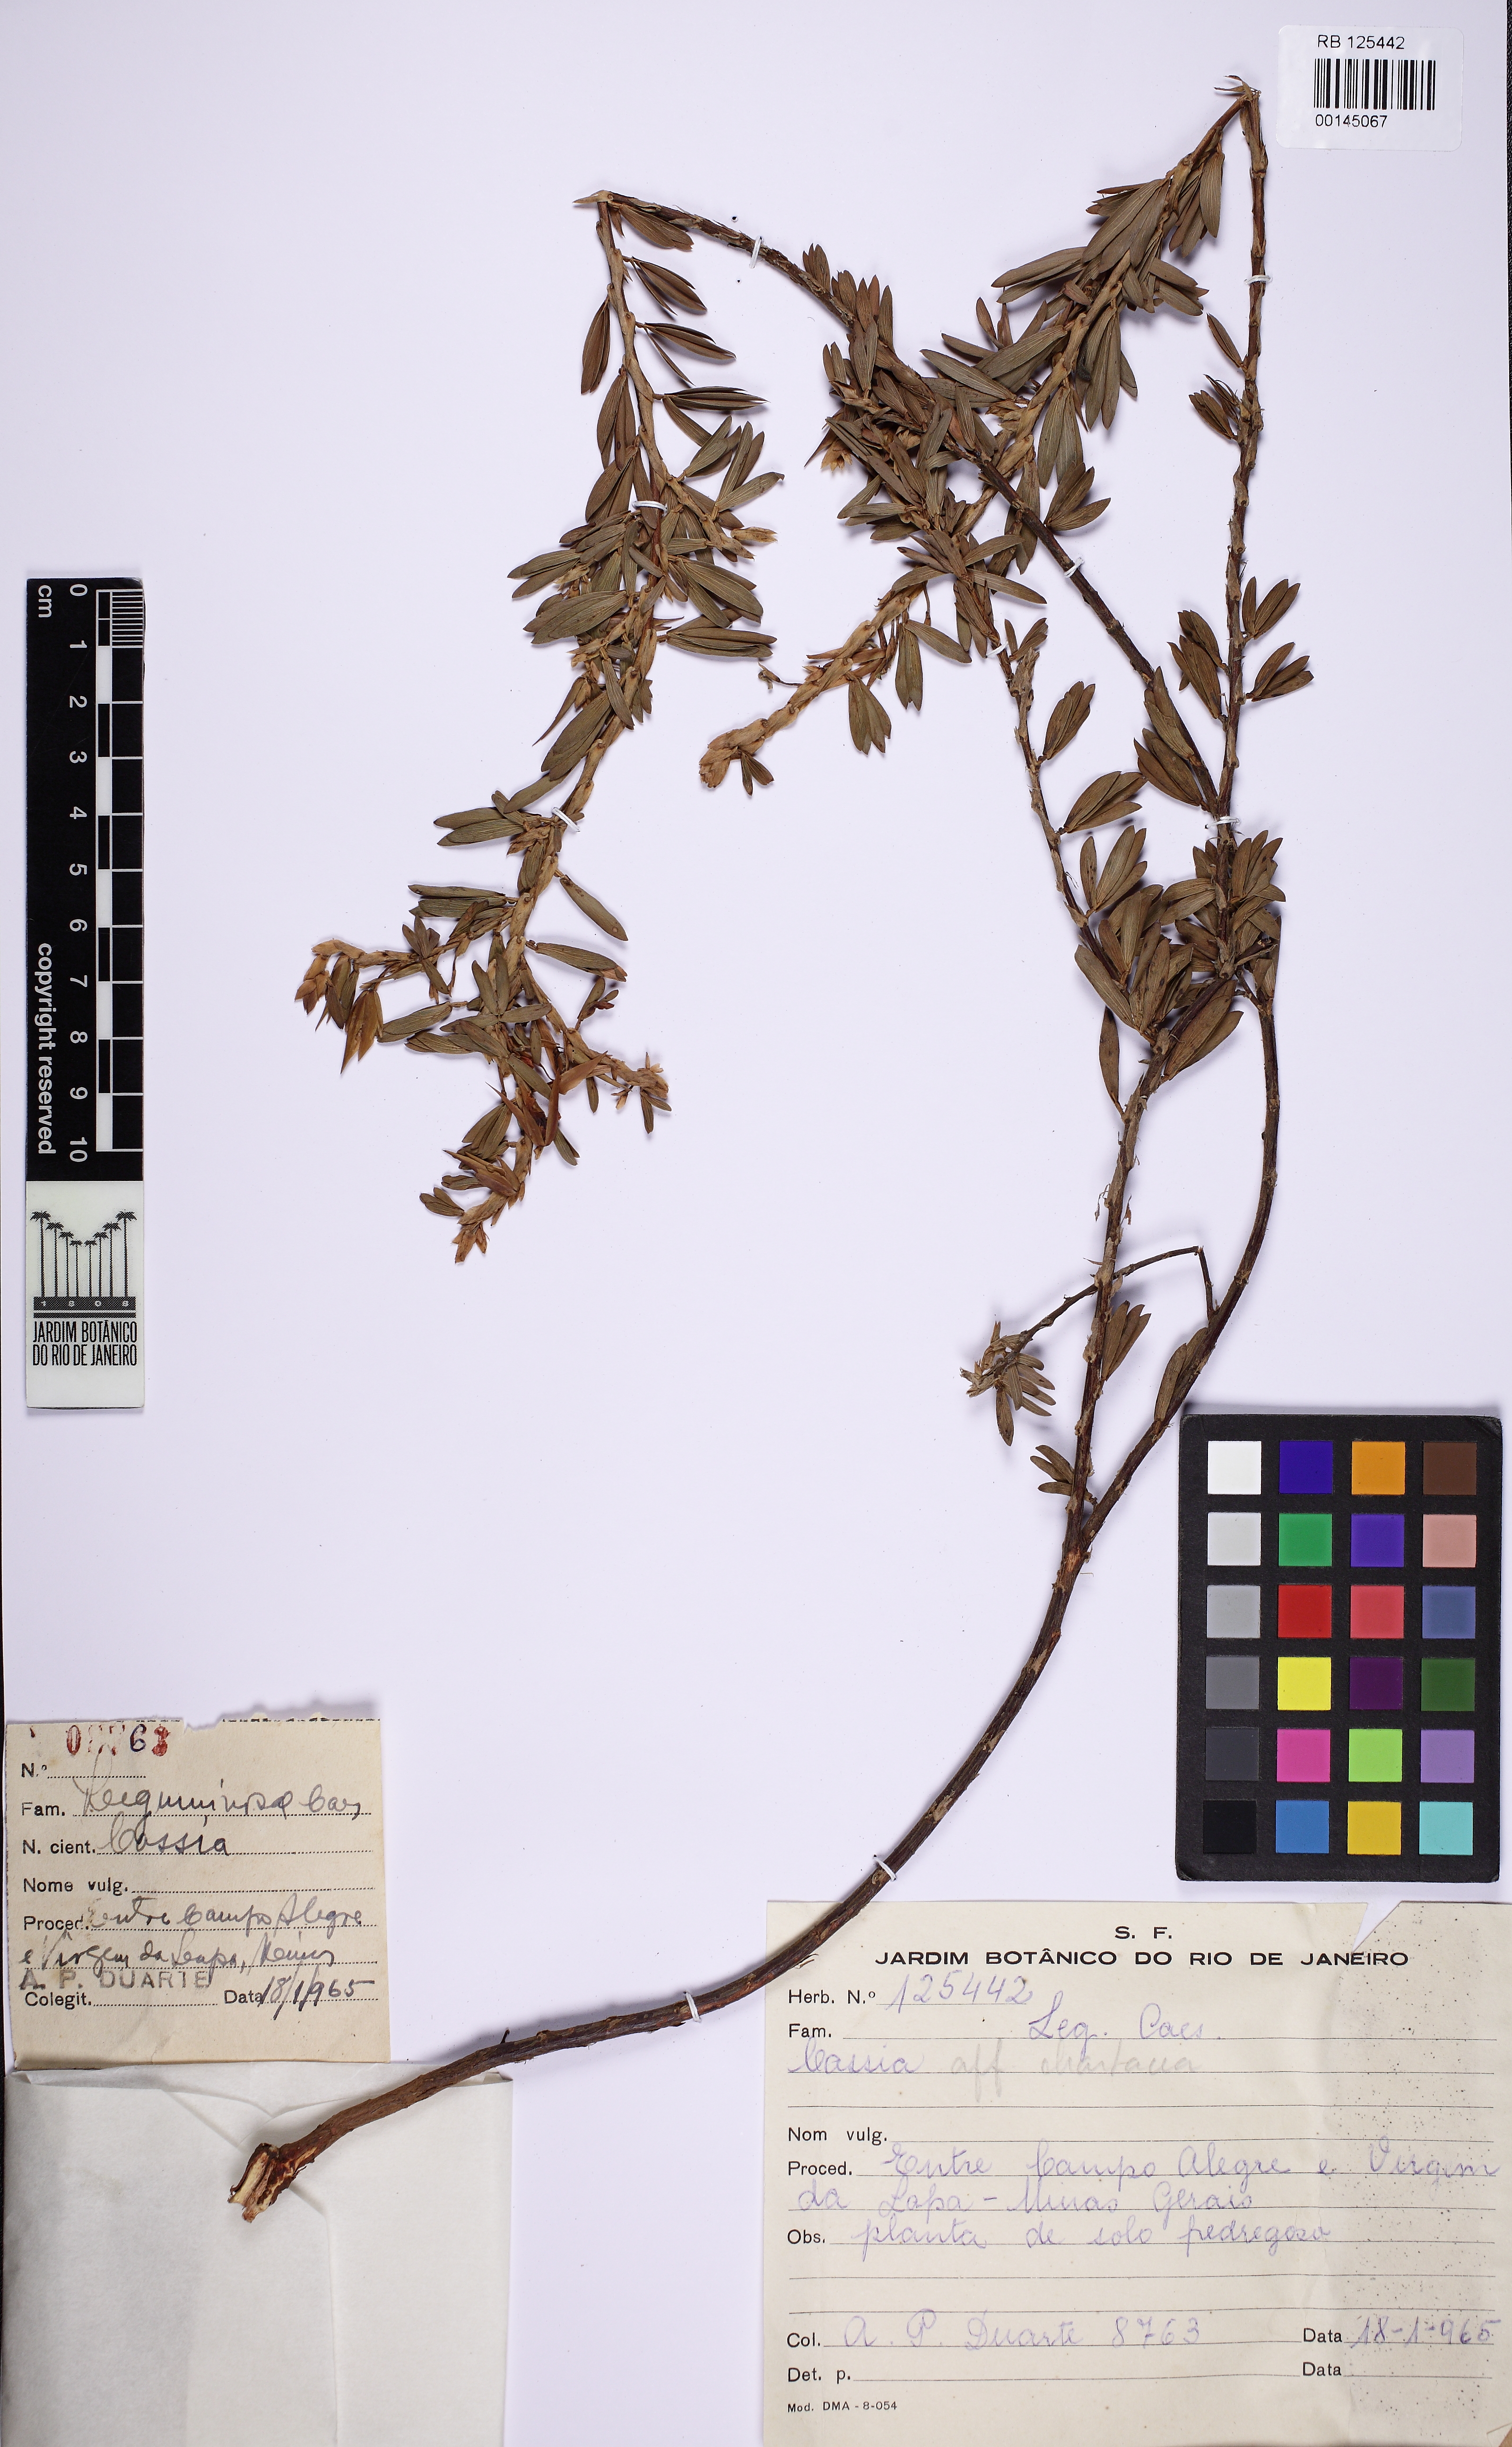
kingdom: Plantae
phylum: Tracheophyta
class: Magnoliopsida
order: Fabales
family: Fabaceae
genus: Chamaecrista
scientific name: Chamaecrista langsdorffii
